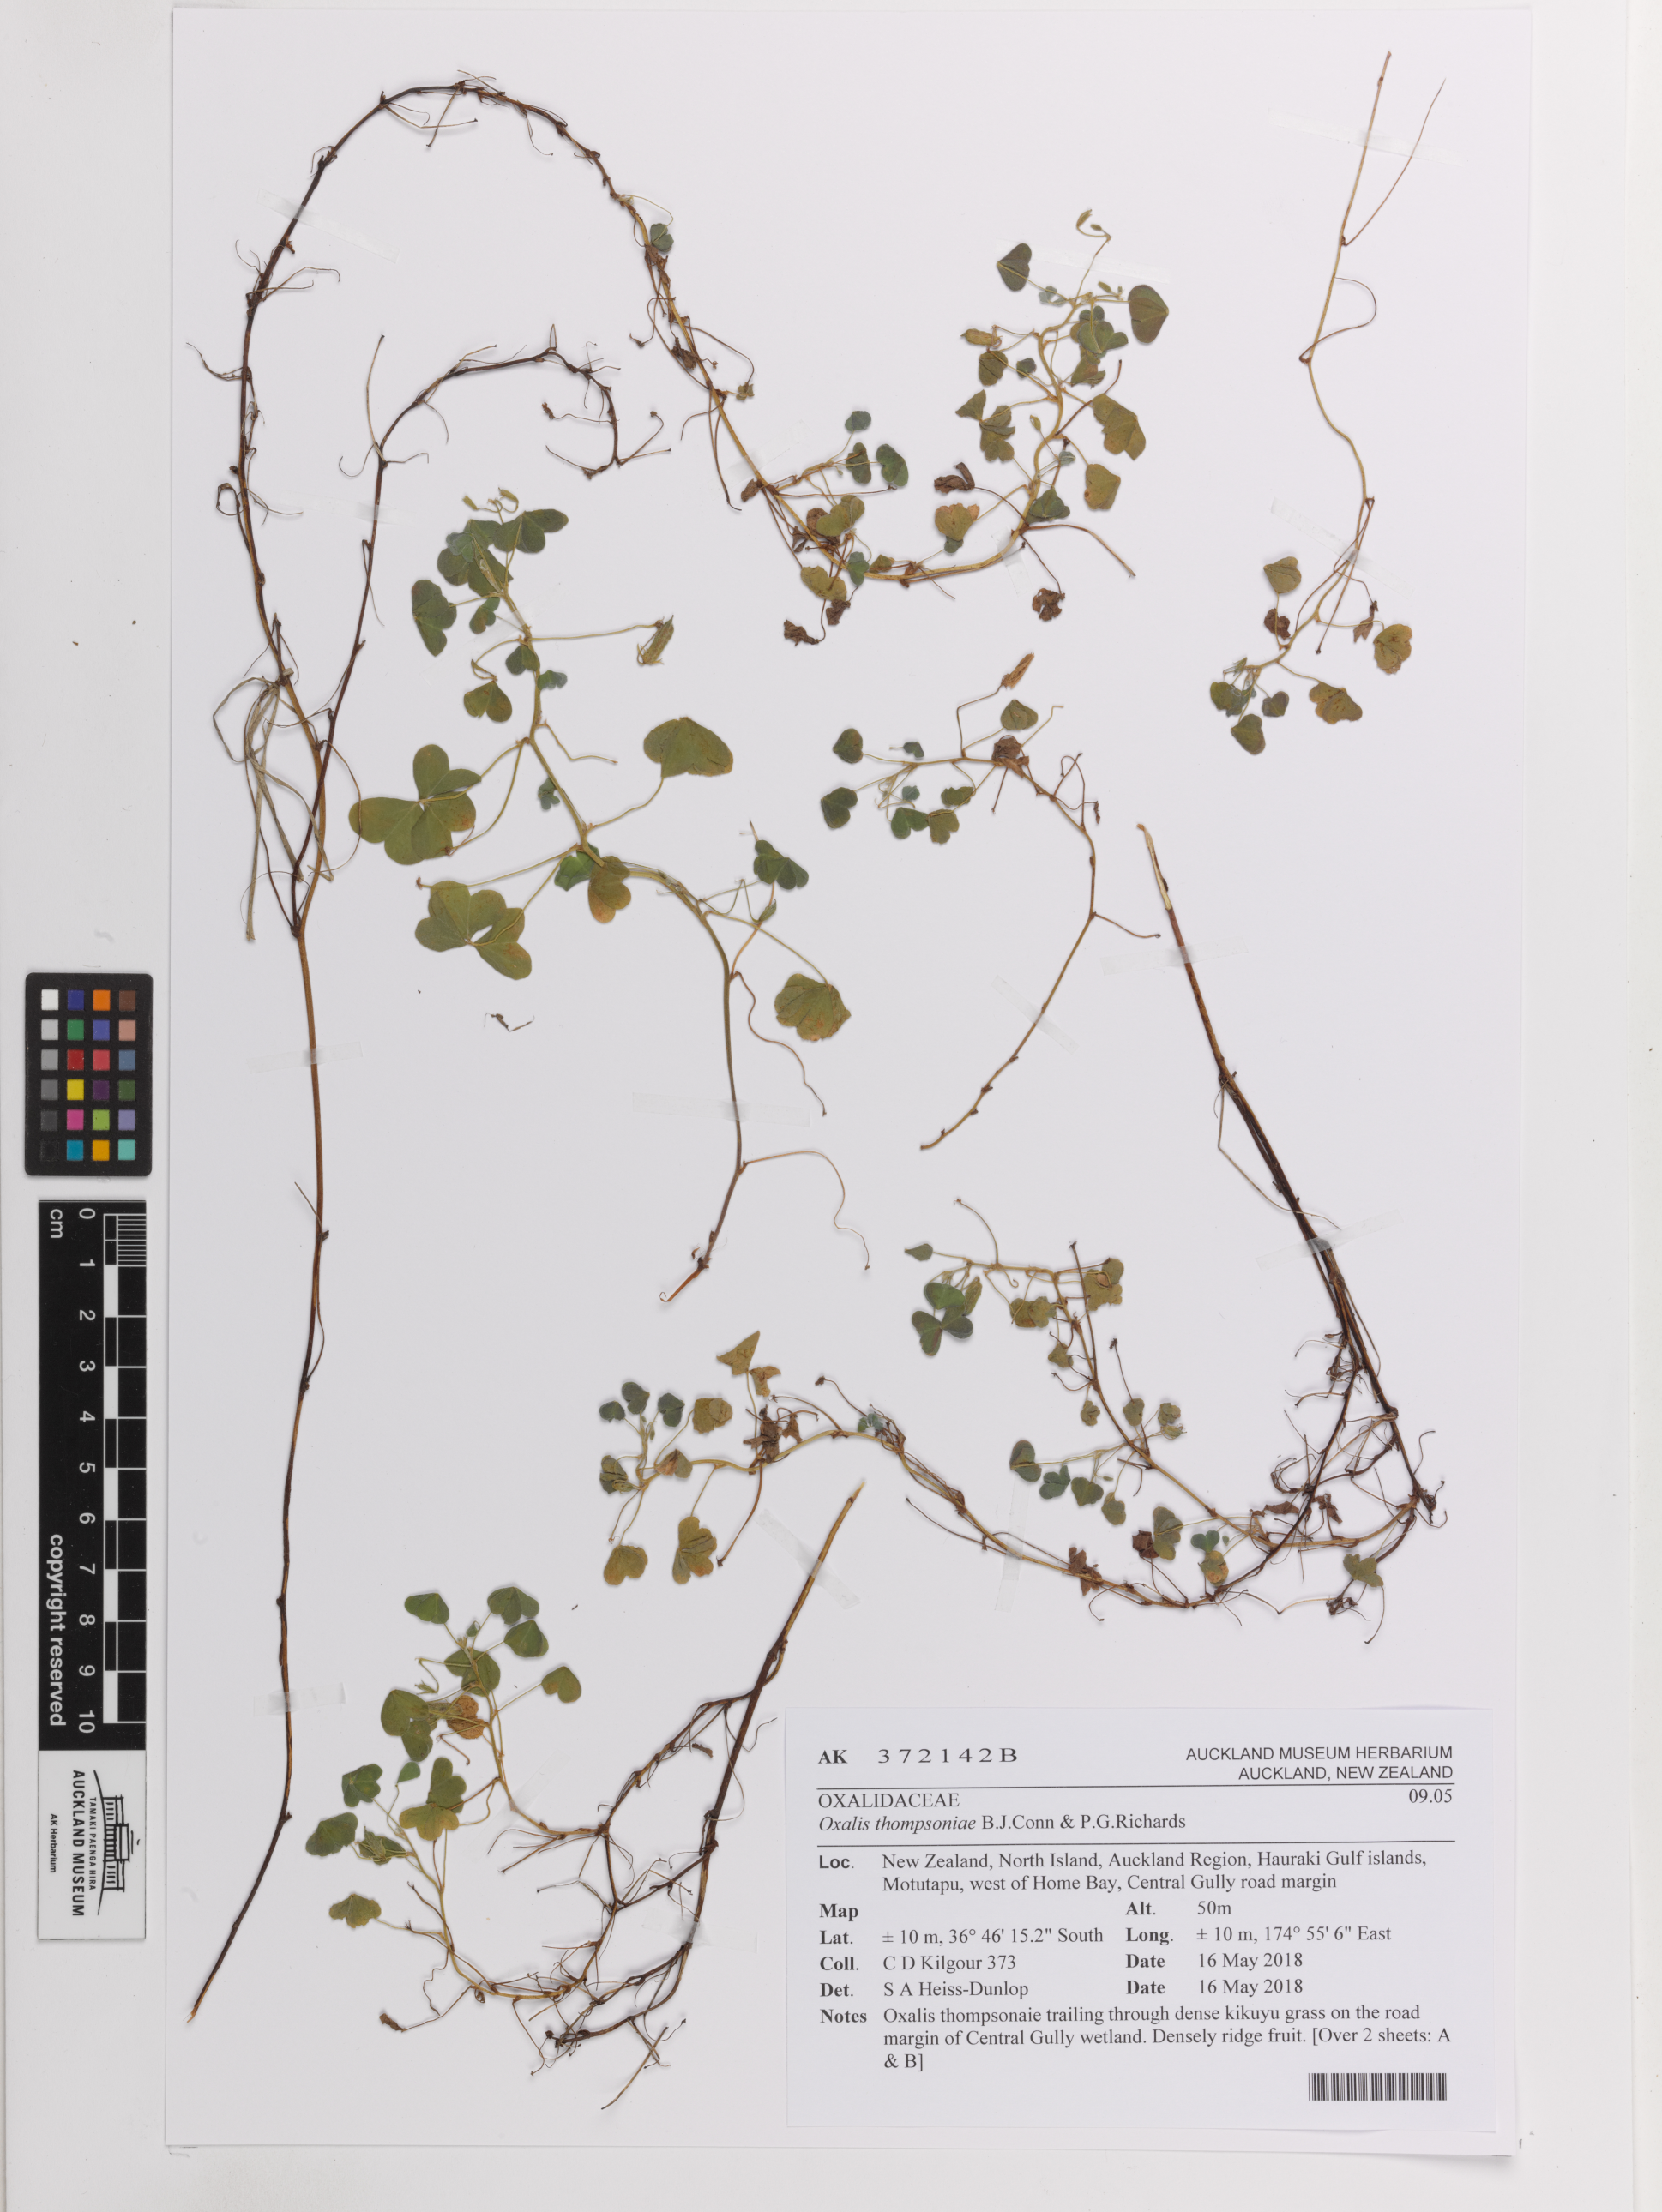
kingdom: Plantae
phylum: Tracheophyta
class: Magnoliopsida
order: Oxalidales
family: Oxalidaceae
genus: Oxalis
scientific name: Oxalis thompsoniae
